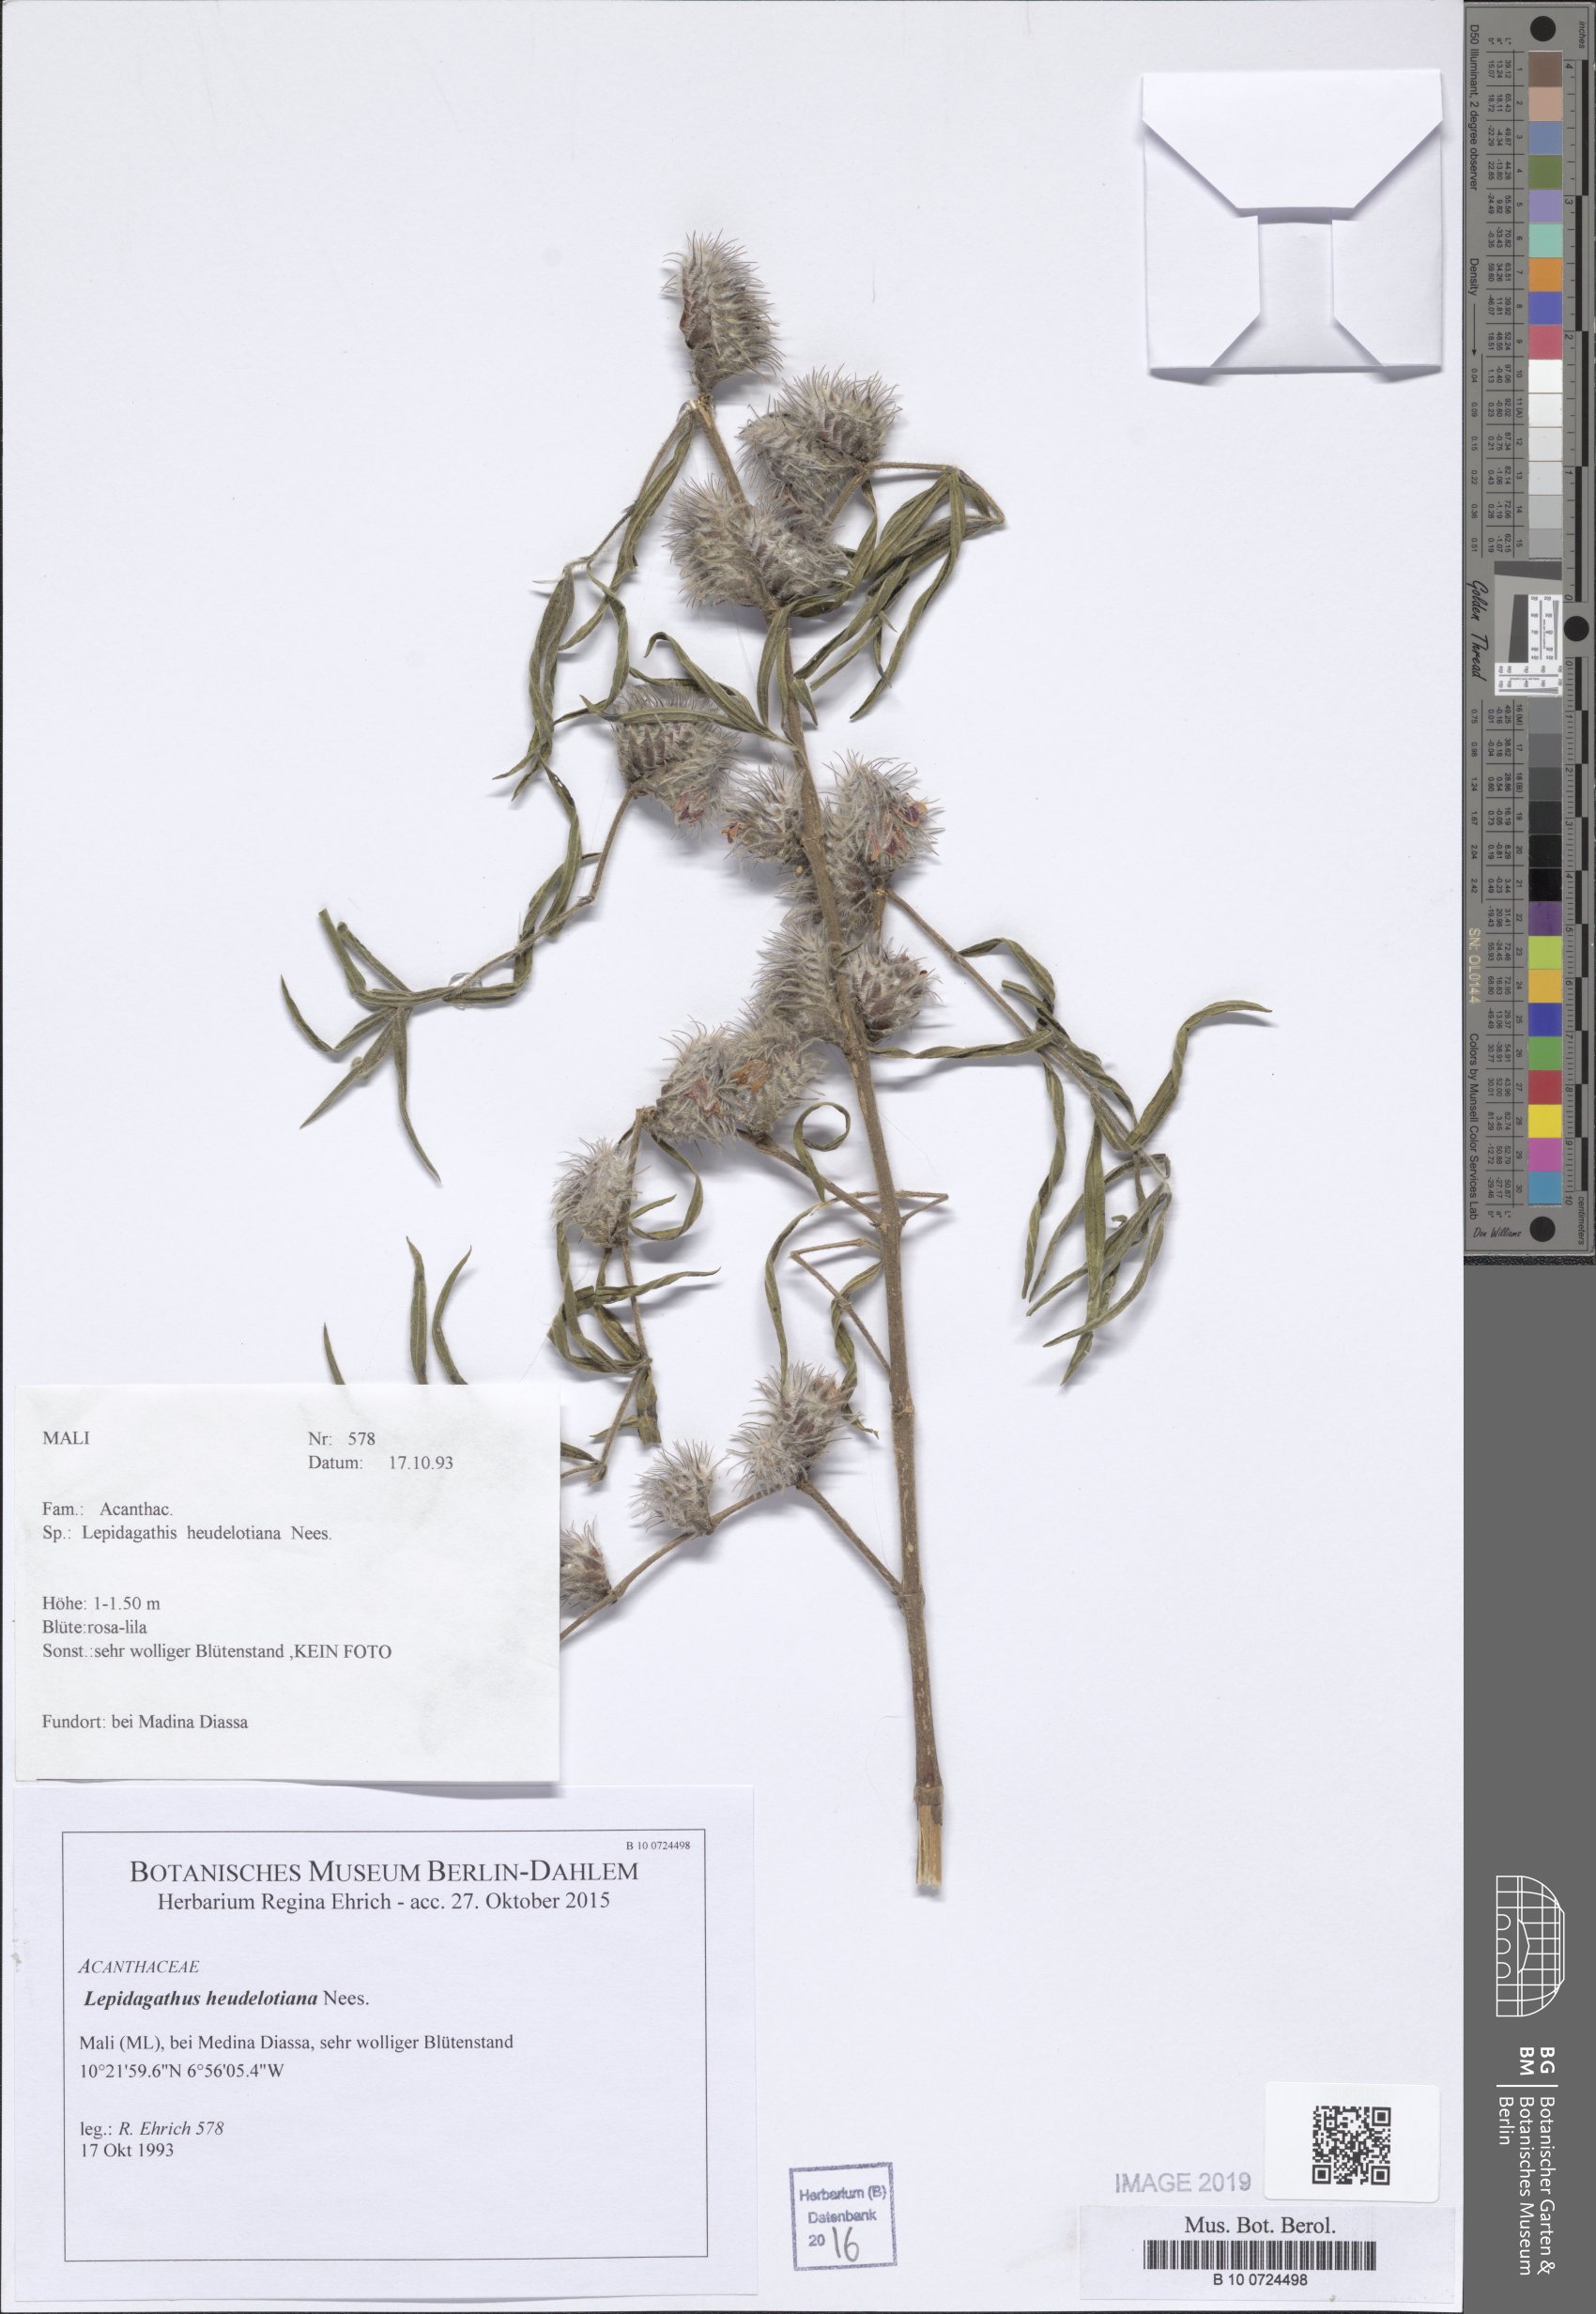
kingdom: Plantae
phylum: Tracheophyta
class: Magnoliopsida
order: Lamiales
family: Acanthaceae
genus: Lepidagathis
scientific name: Lepidagathis heudelotiana
